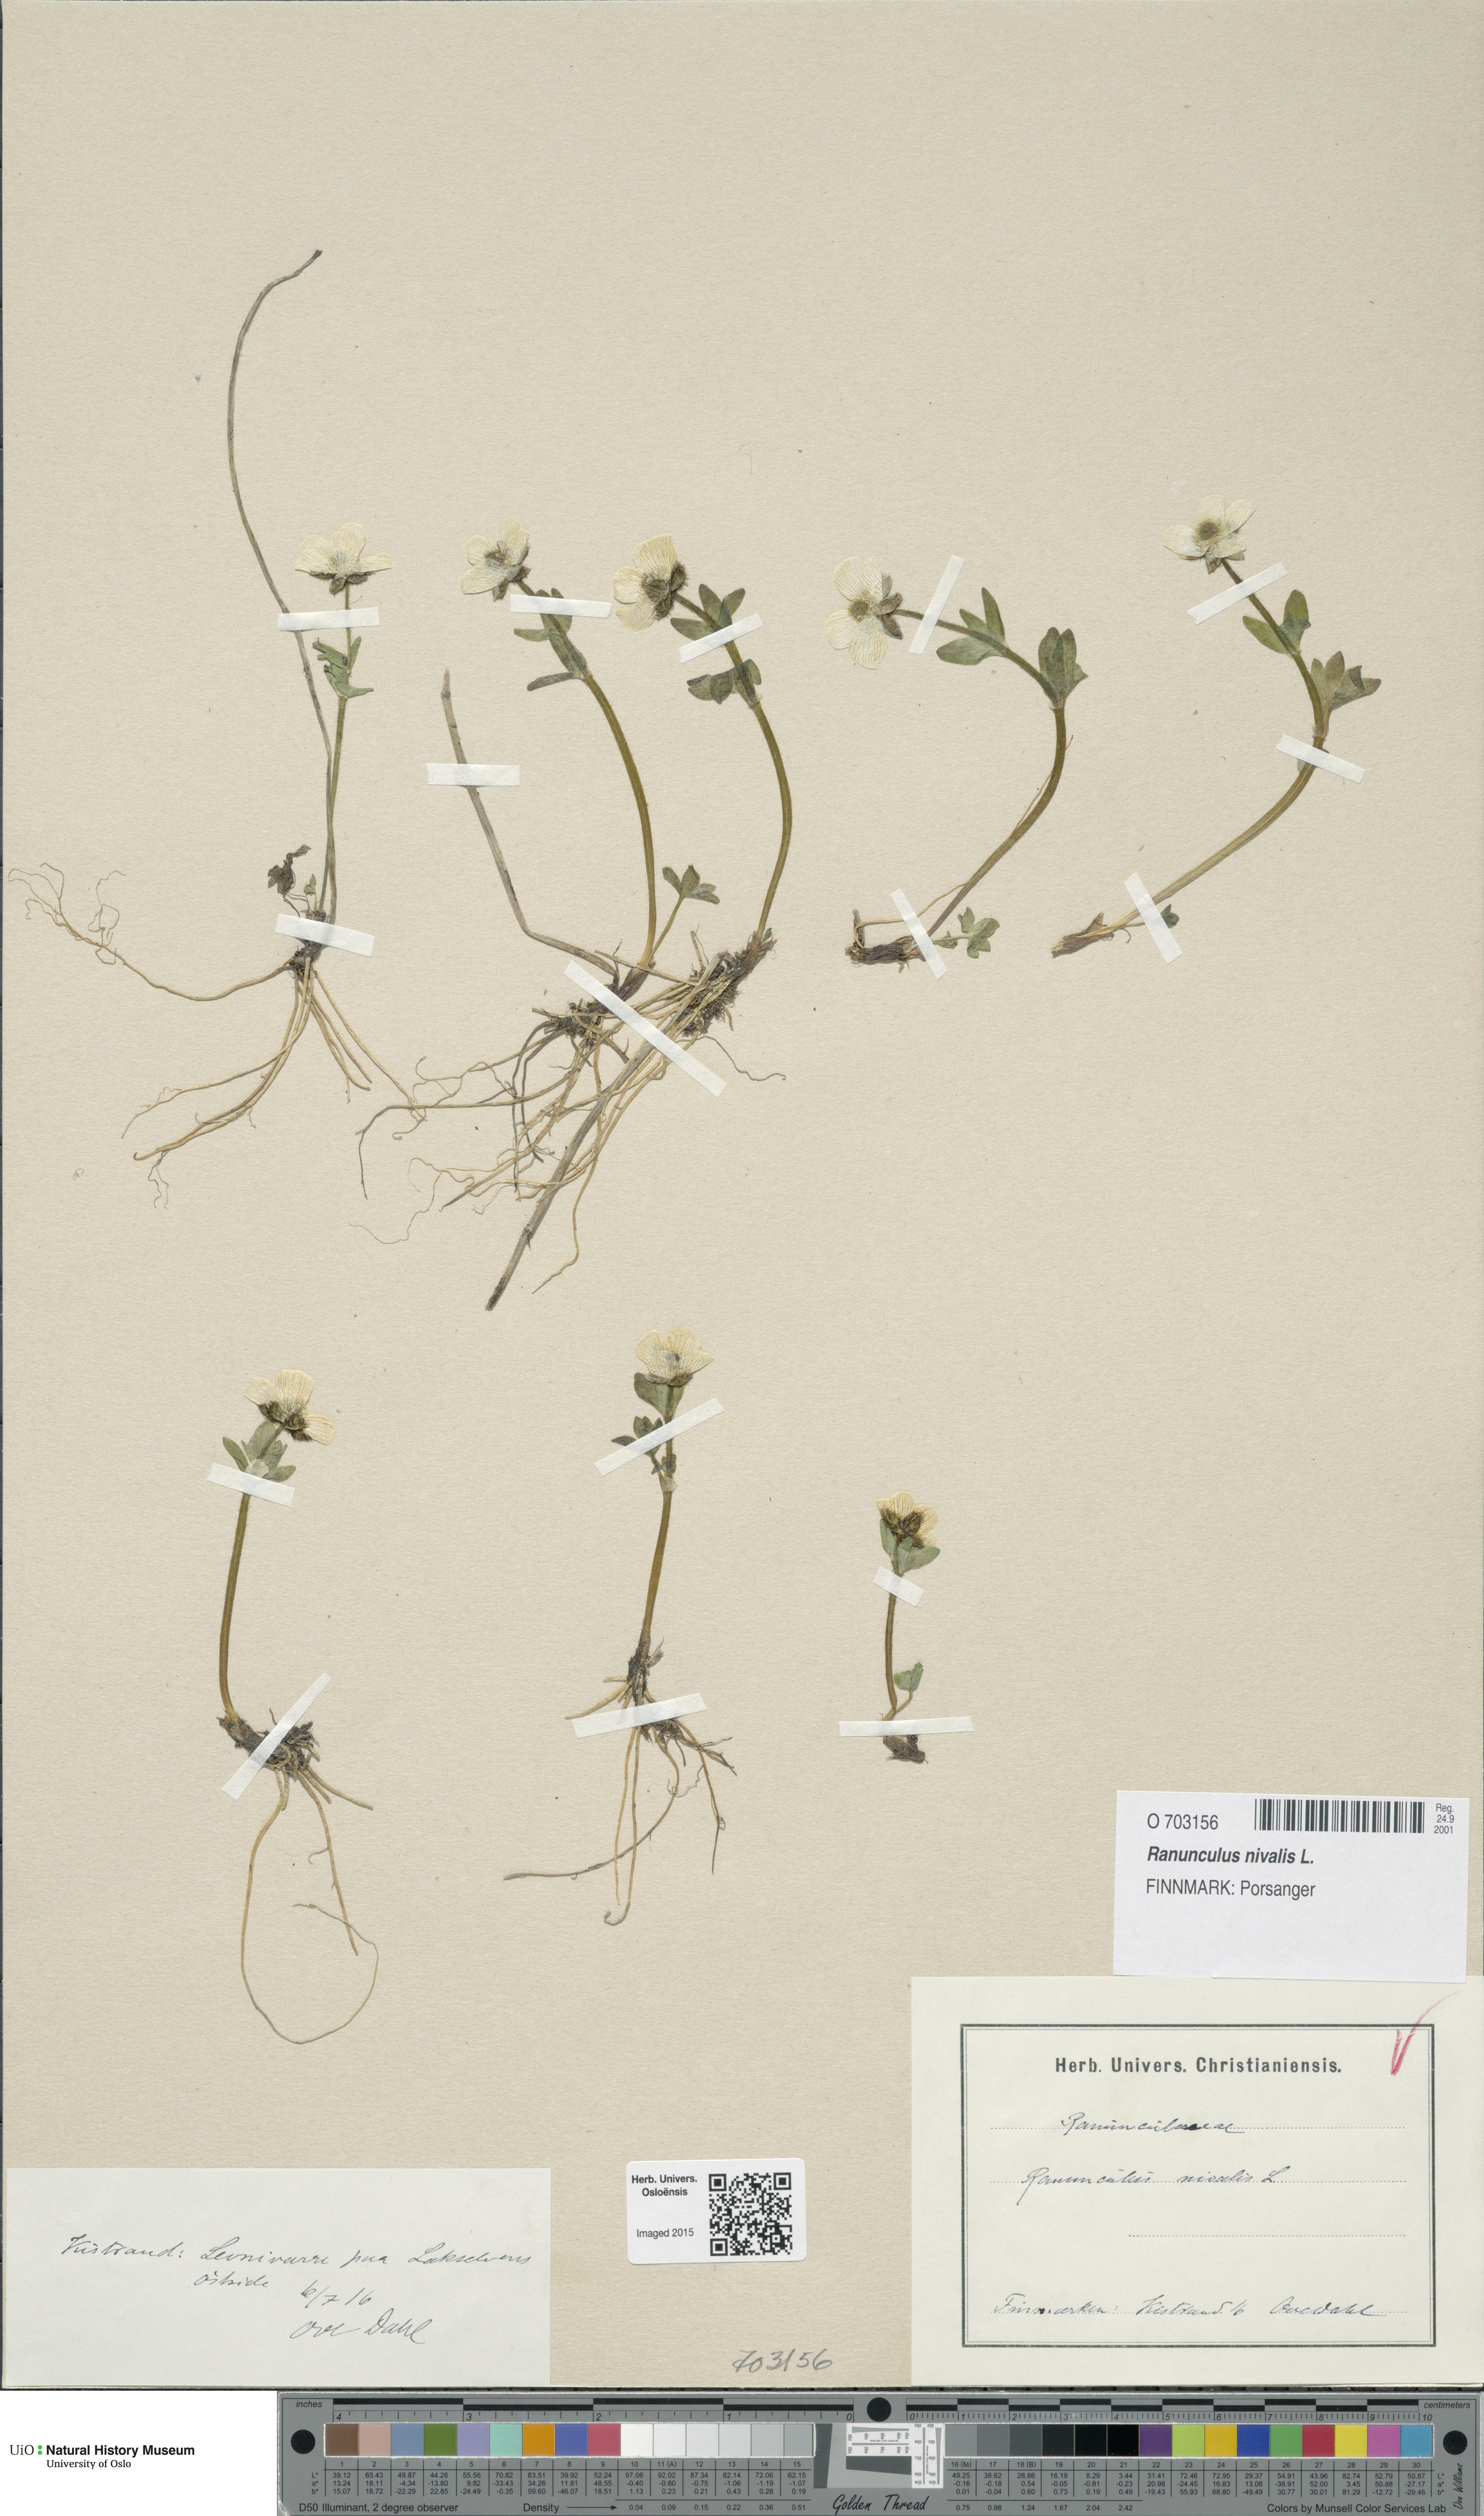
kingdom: Plantae
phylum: Tracheophyta
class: Magnoliopsida
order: Ranunculales
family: Ranunculaceae
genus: Ranunculus
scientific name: Ranunculus nivalis
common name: Snow buttercup
